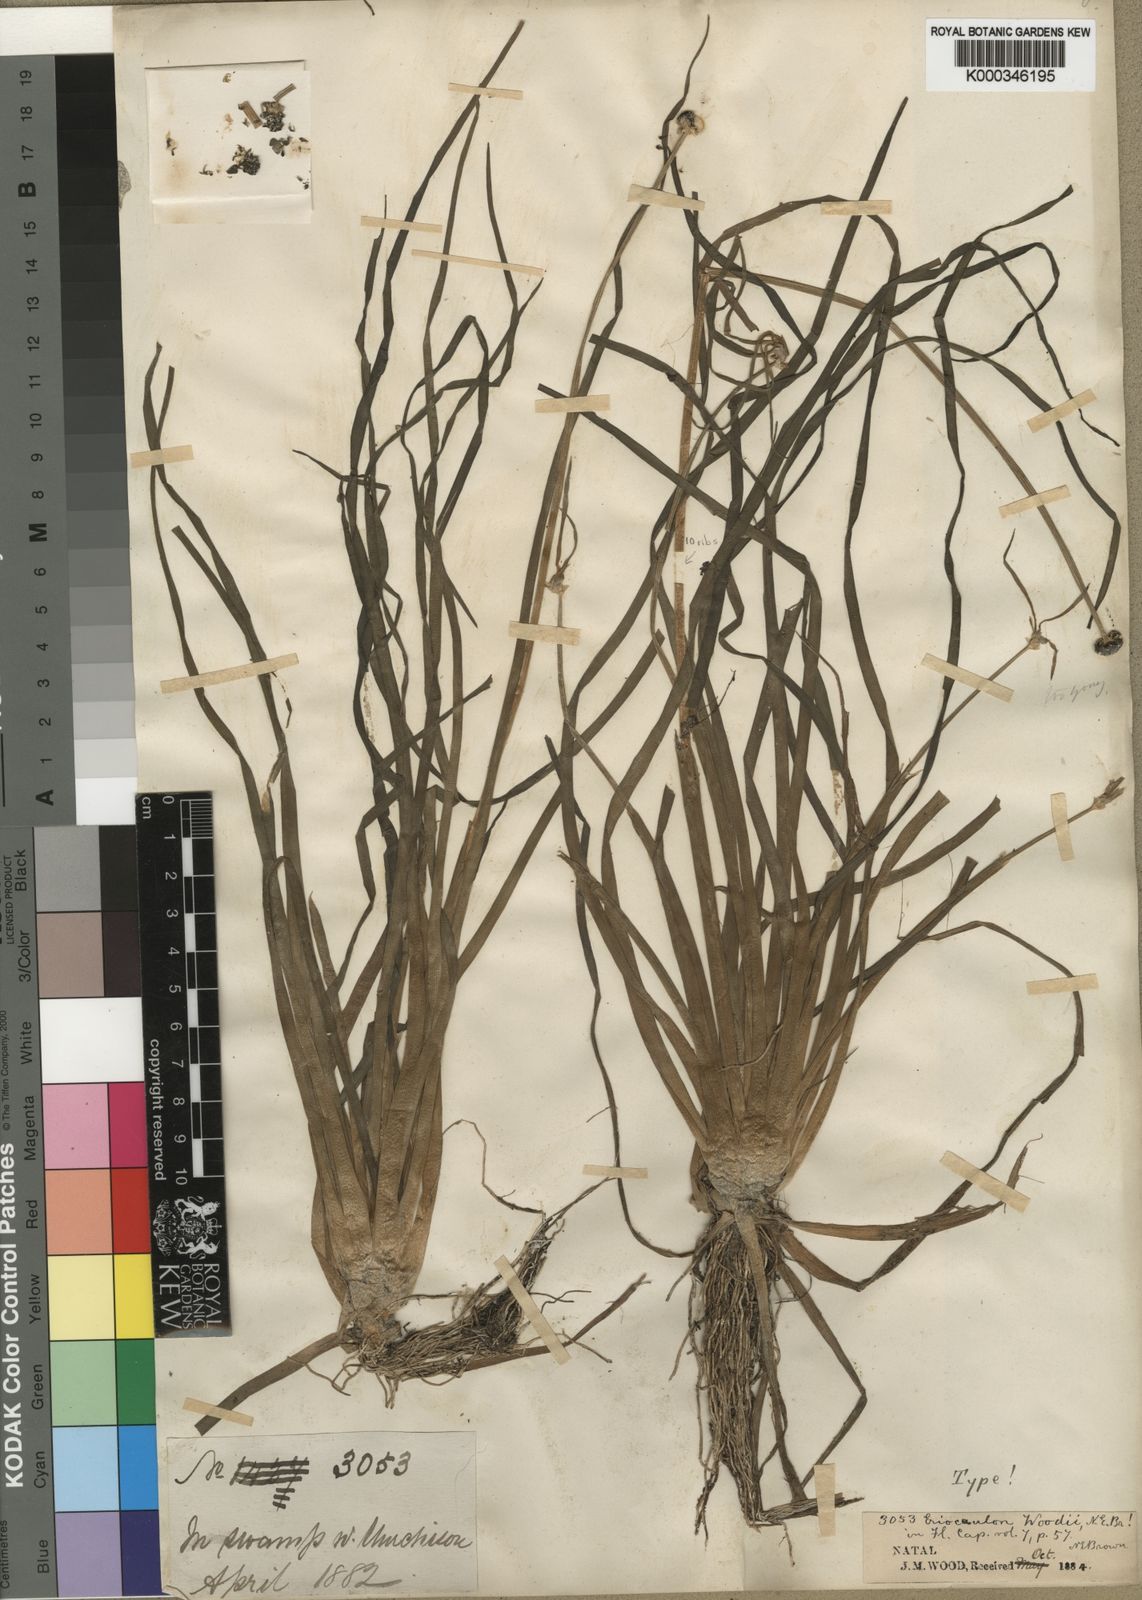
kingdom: Plantae
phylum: Tracheophyta
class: Liliopsida
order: Poales
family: Eriocaulaceae
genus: Eriocaulon
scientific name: Eriocaulon africanum
